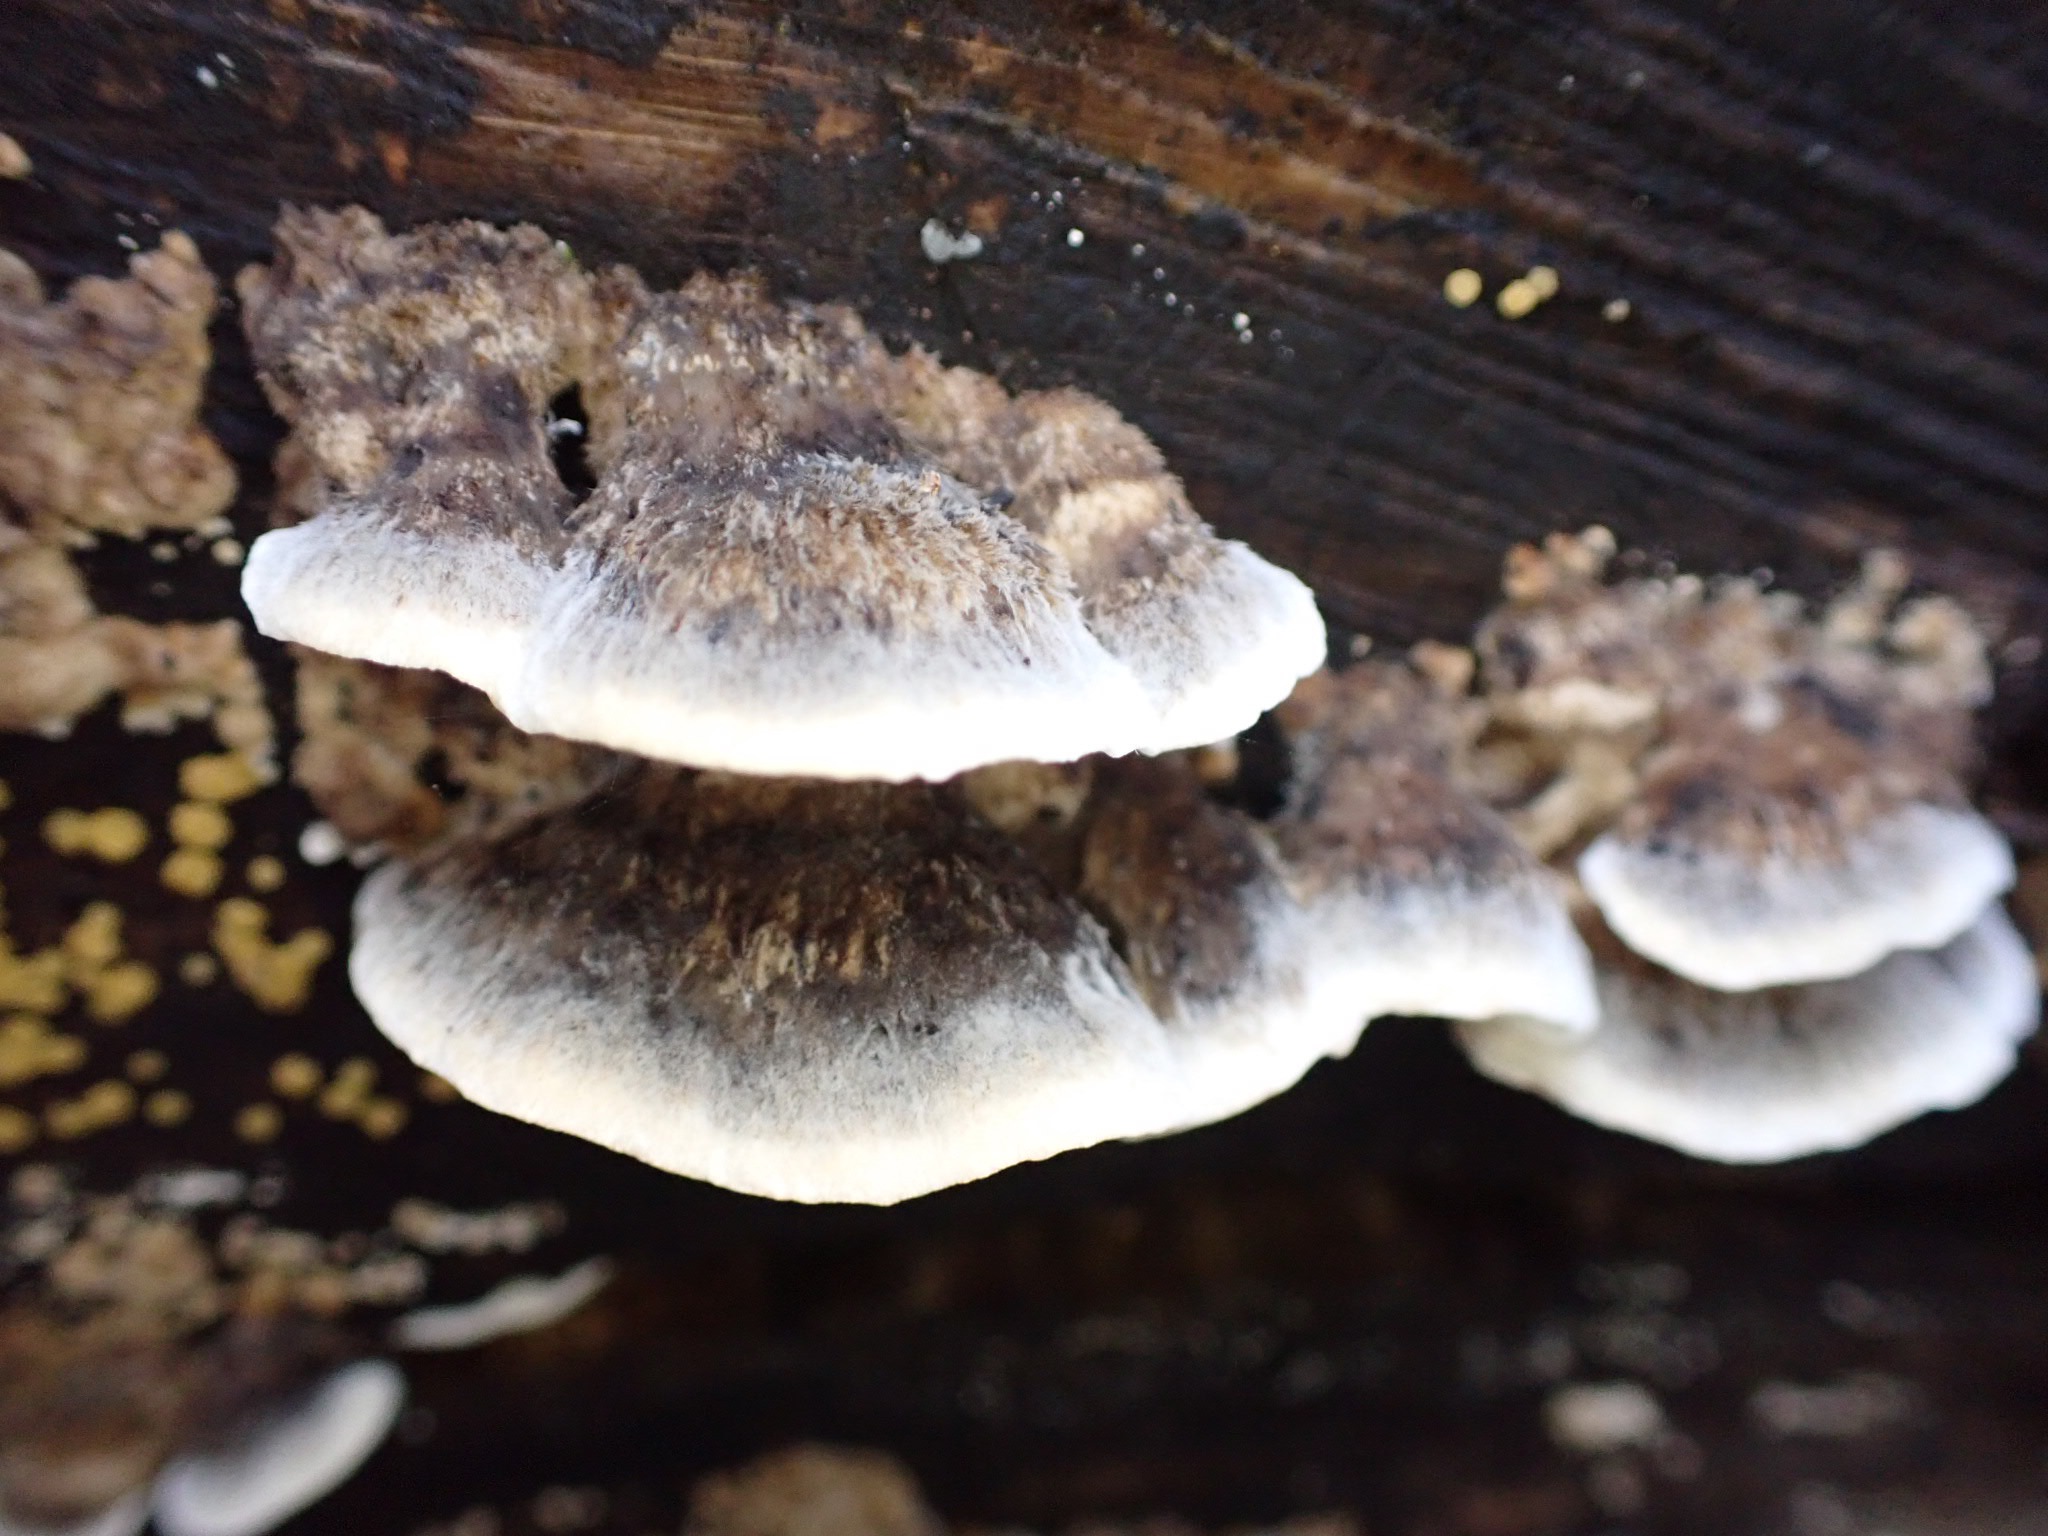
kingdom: Fungi
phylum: Basidiomycota
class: Agaricomycetes
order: Polyporales
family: Phanerochaetaceae
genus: Bjerkandera
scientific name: Bjerkandera adusta
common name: sveden sodporesvamp
